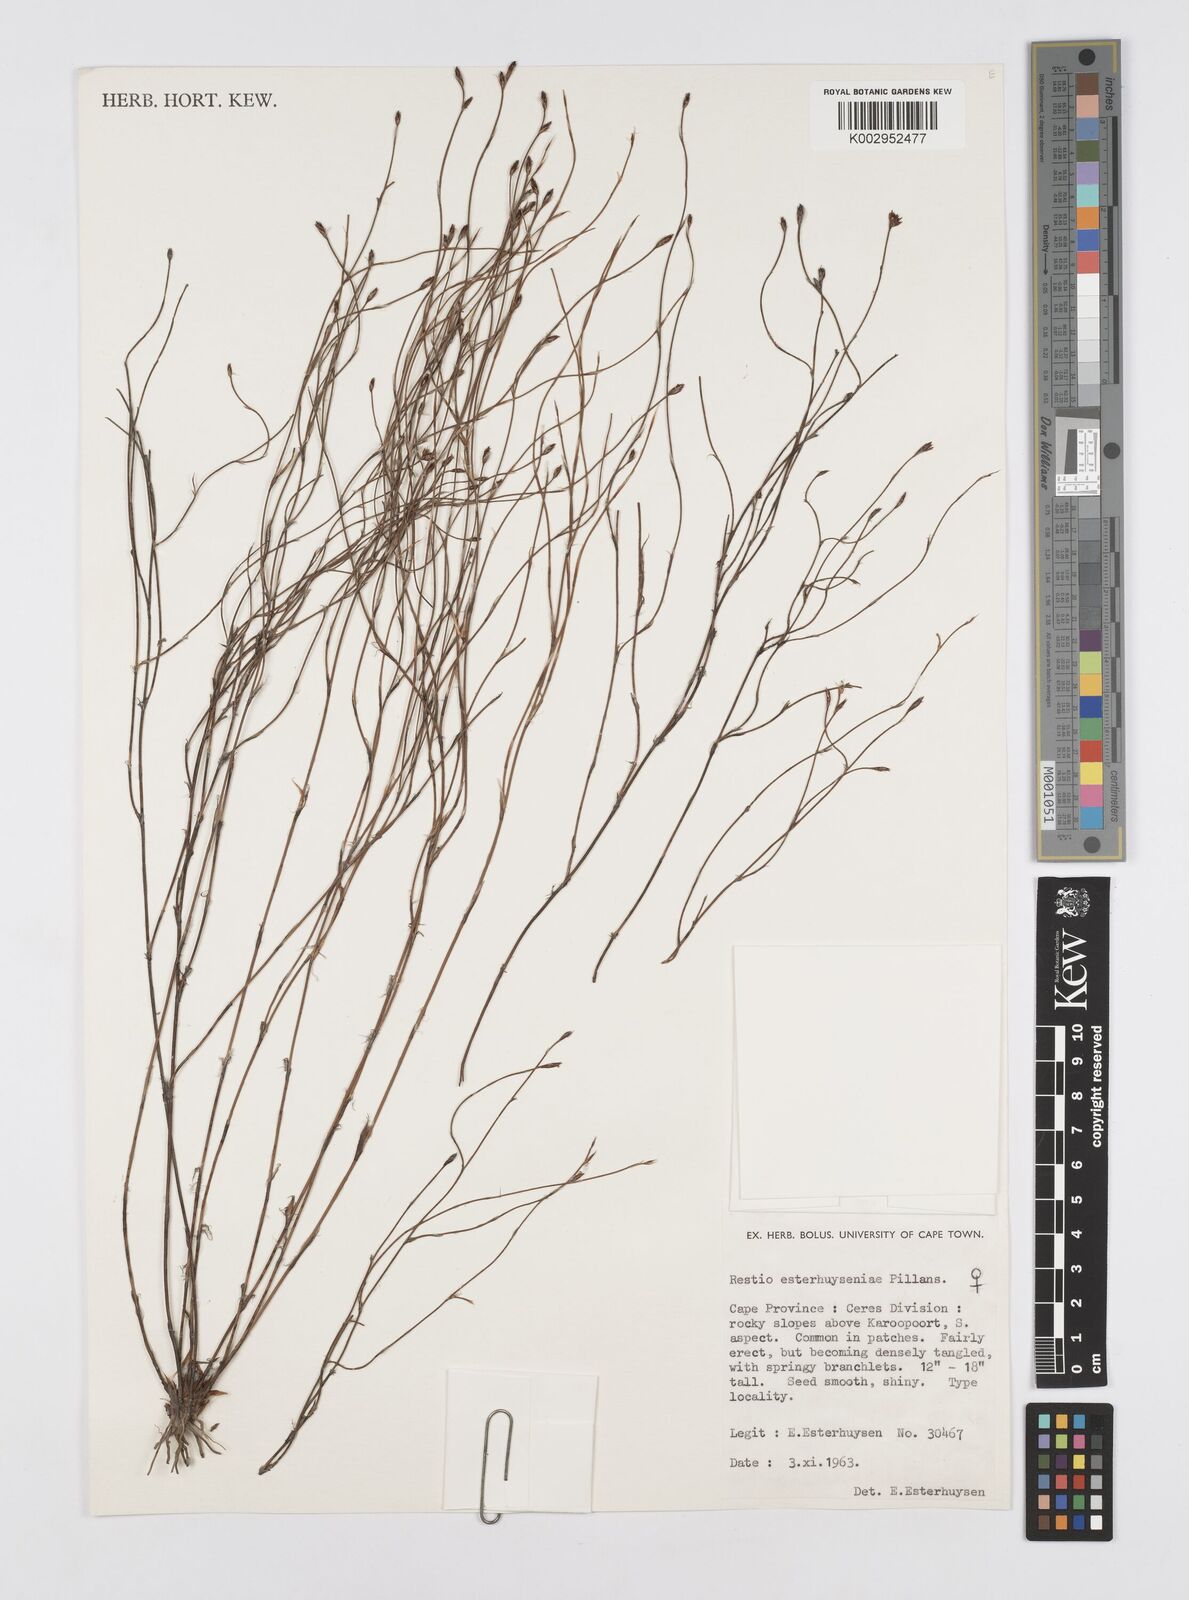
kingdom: Plantae
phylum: Tracheophyta
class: Liliopsida
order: Poales
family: Restionaceae
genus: Restio
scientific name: Restio esterhuyseniae
